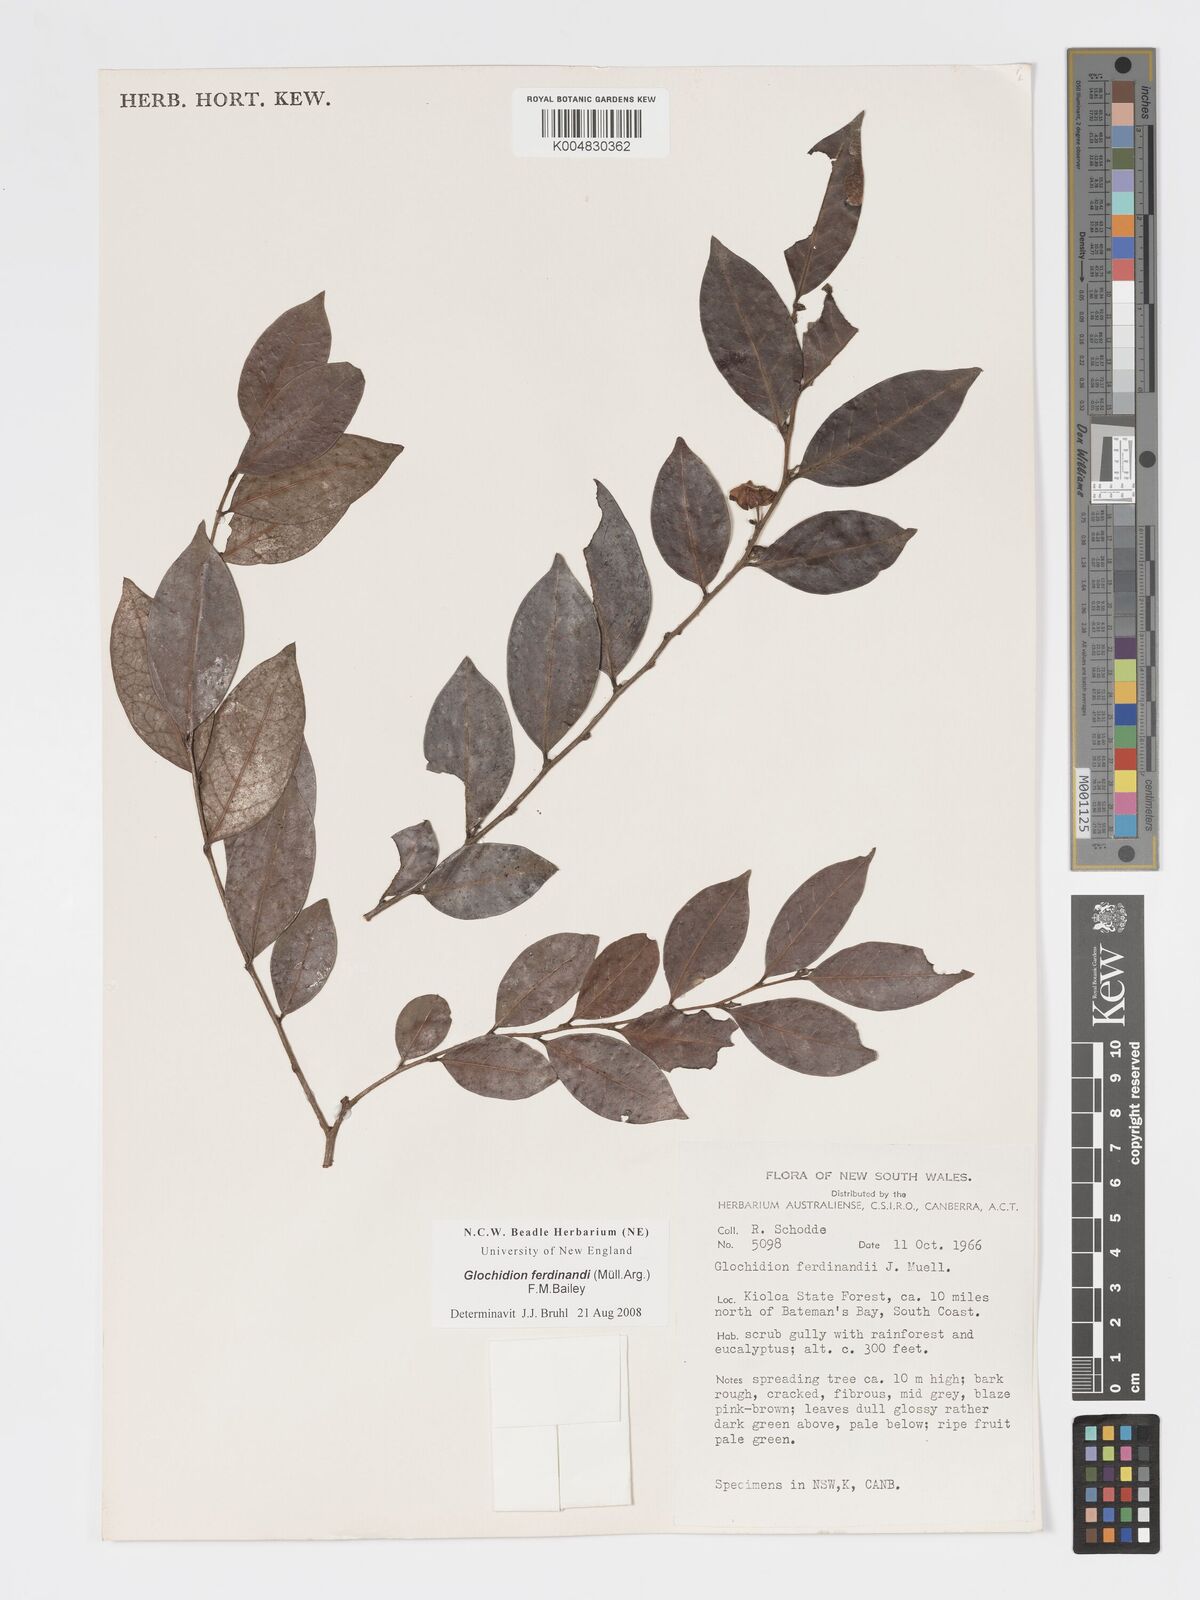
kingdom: Plantae
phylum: Tracheophyta
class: Magnoliopsida
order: Malpighiales
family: Phyllanthaceae
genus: Glochidion
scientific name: Glochidion ferdinandi
